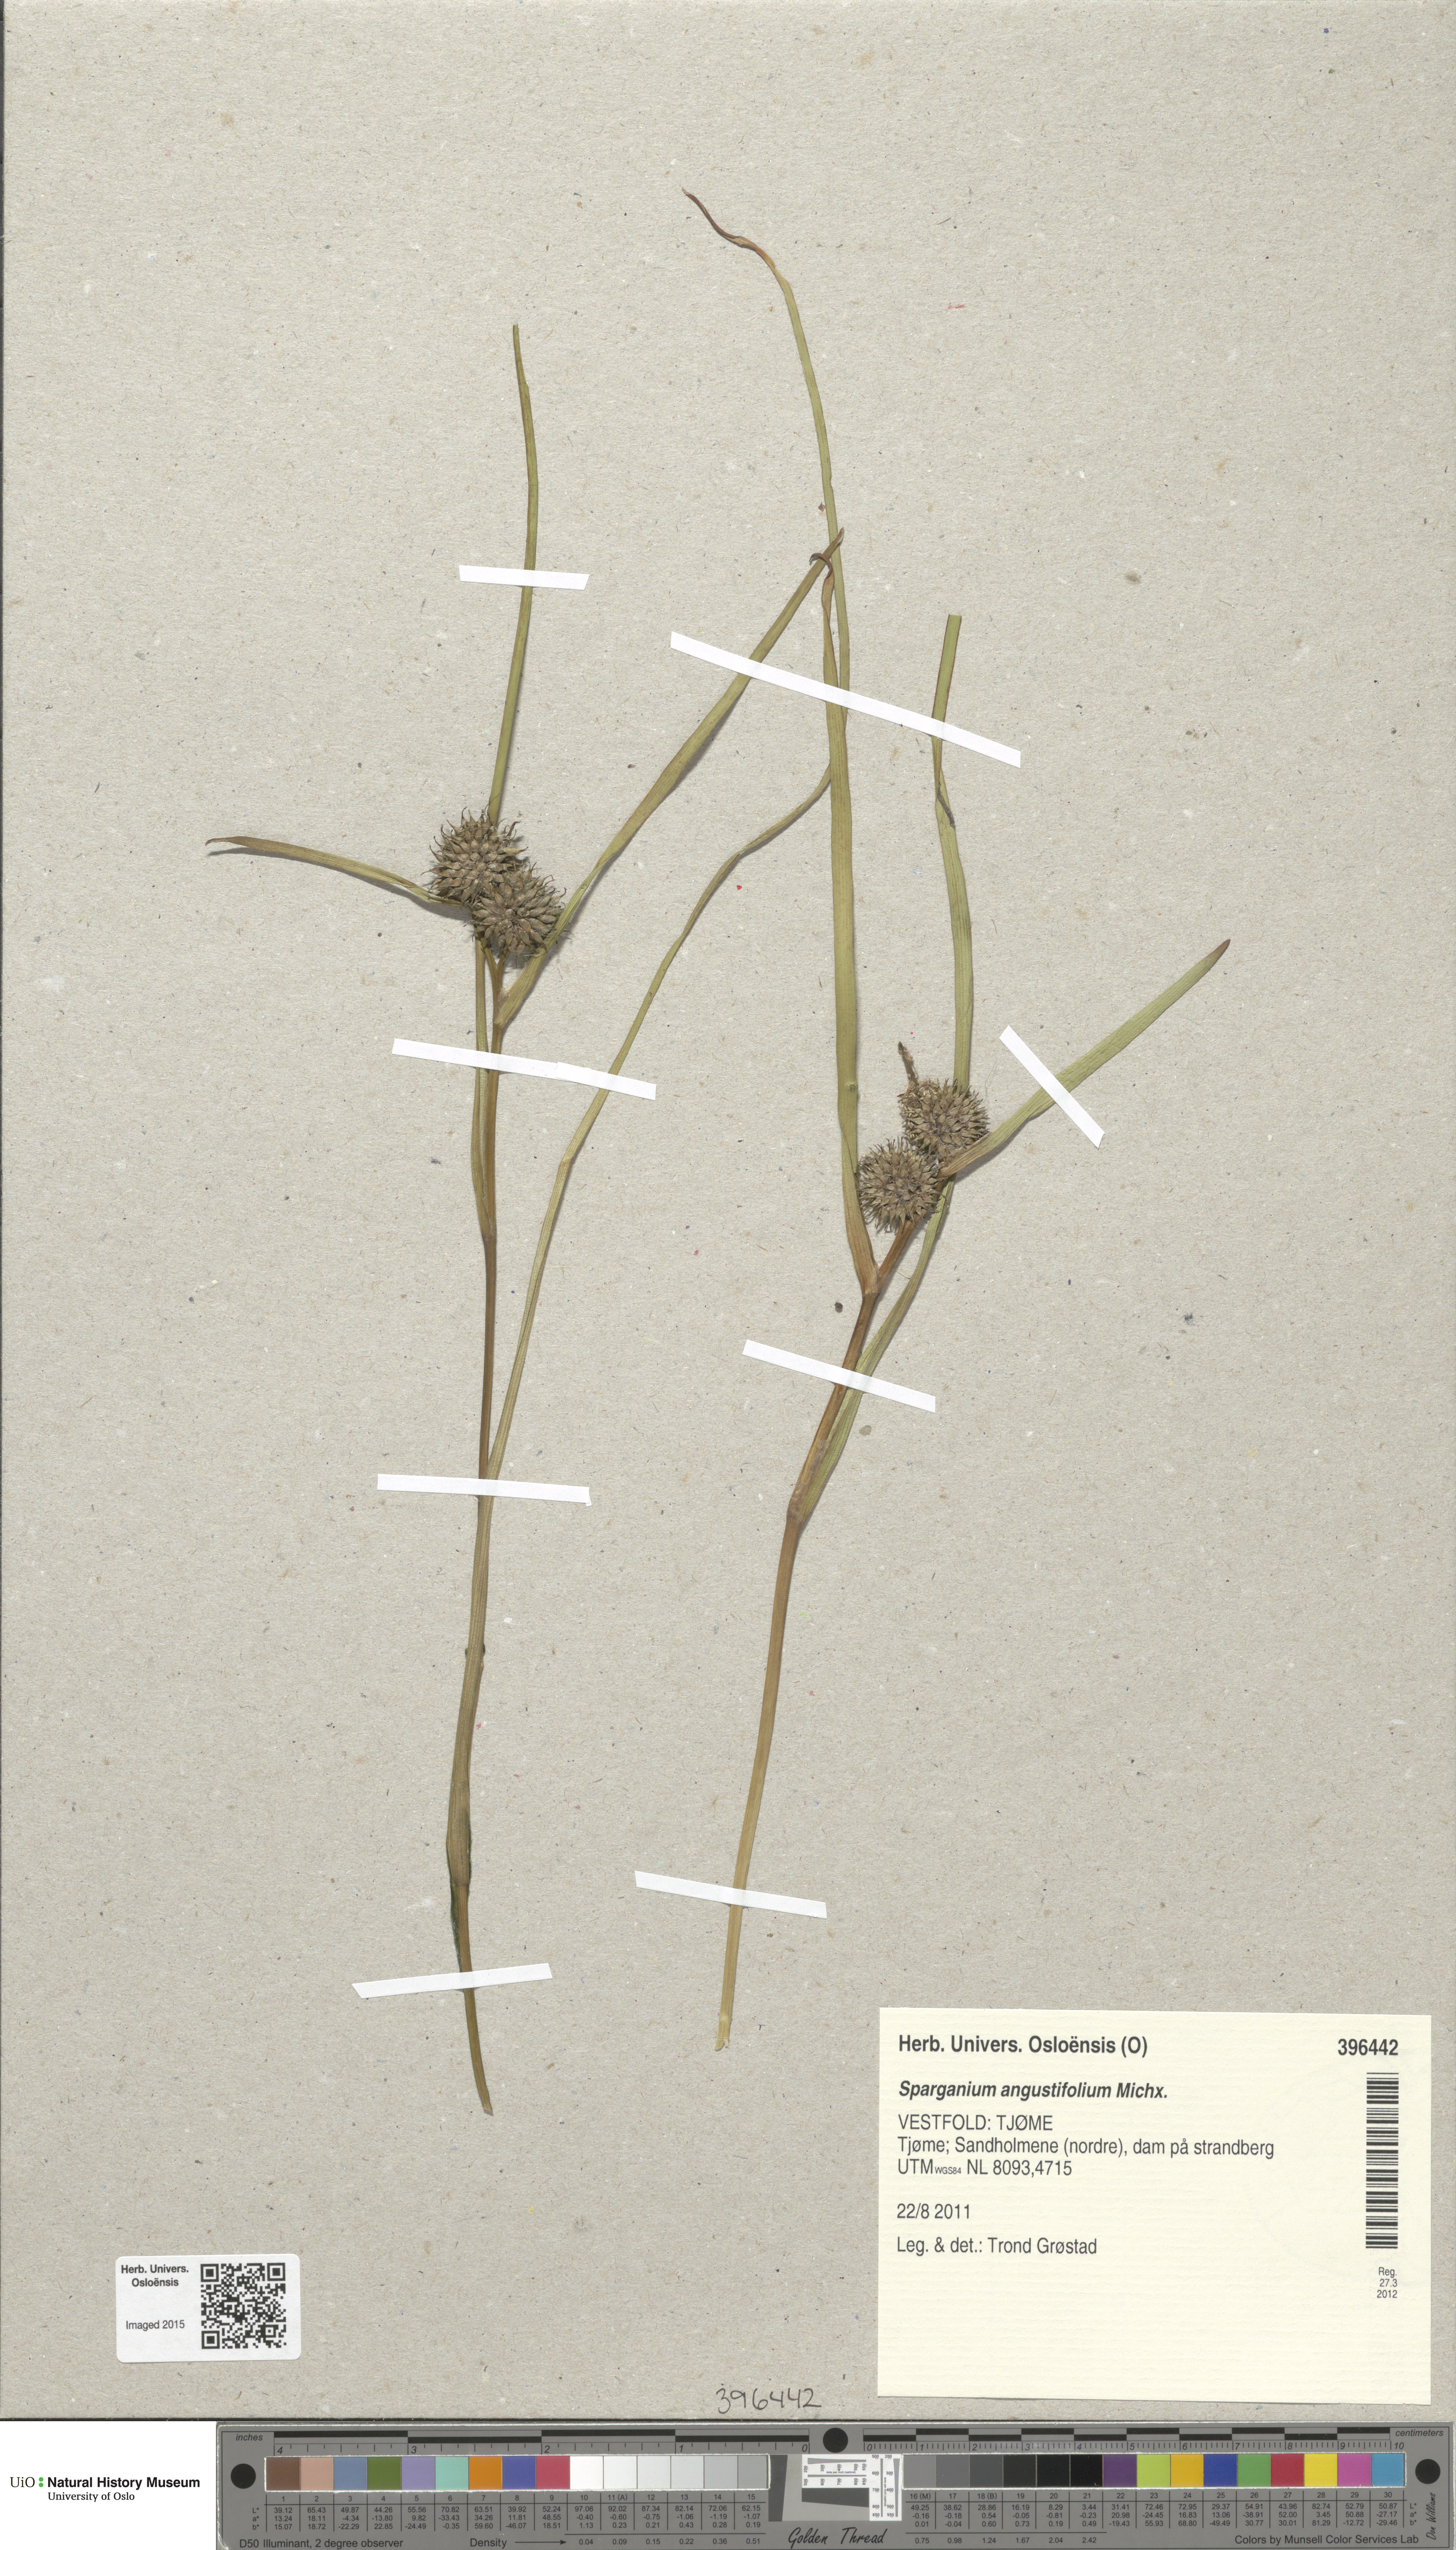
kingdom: Plantae
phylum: Tracheophyta
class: Liliopsida
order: Poales
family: Typhaceae
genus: Sparganium
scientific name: Sparganium angustifolium
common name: Floating bur-reed
